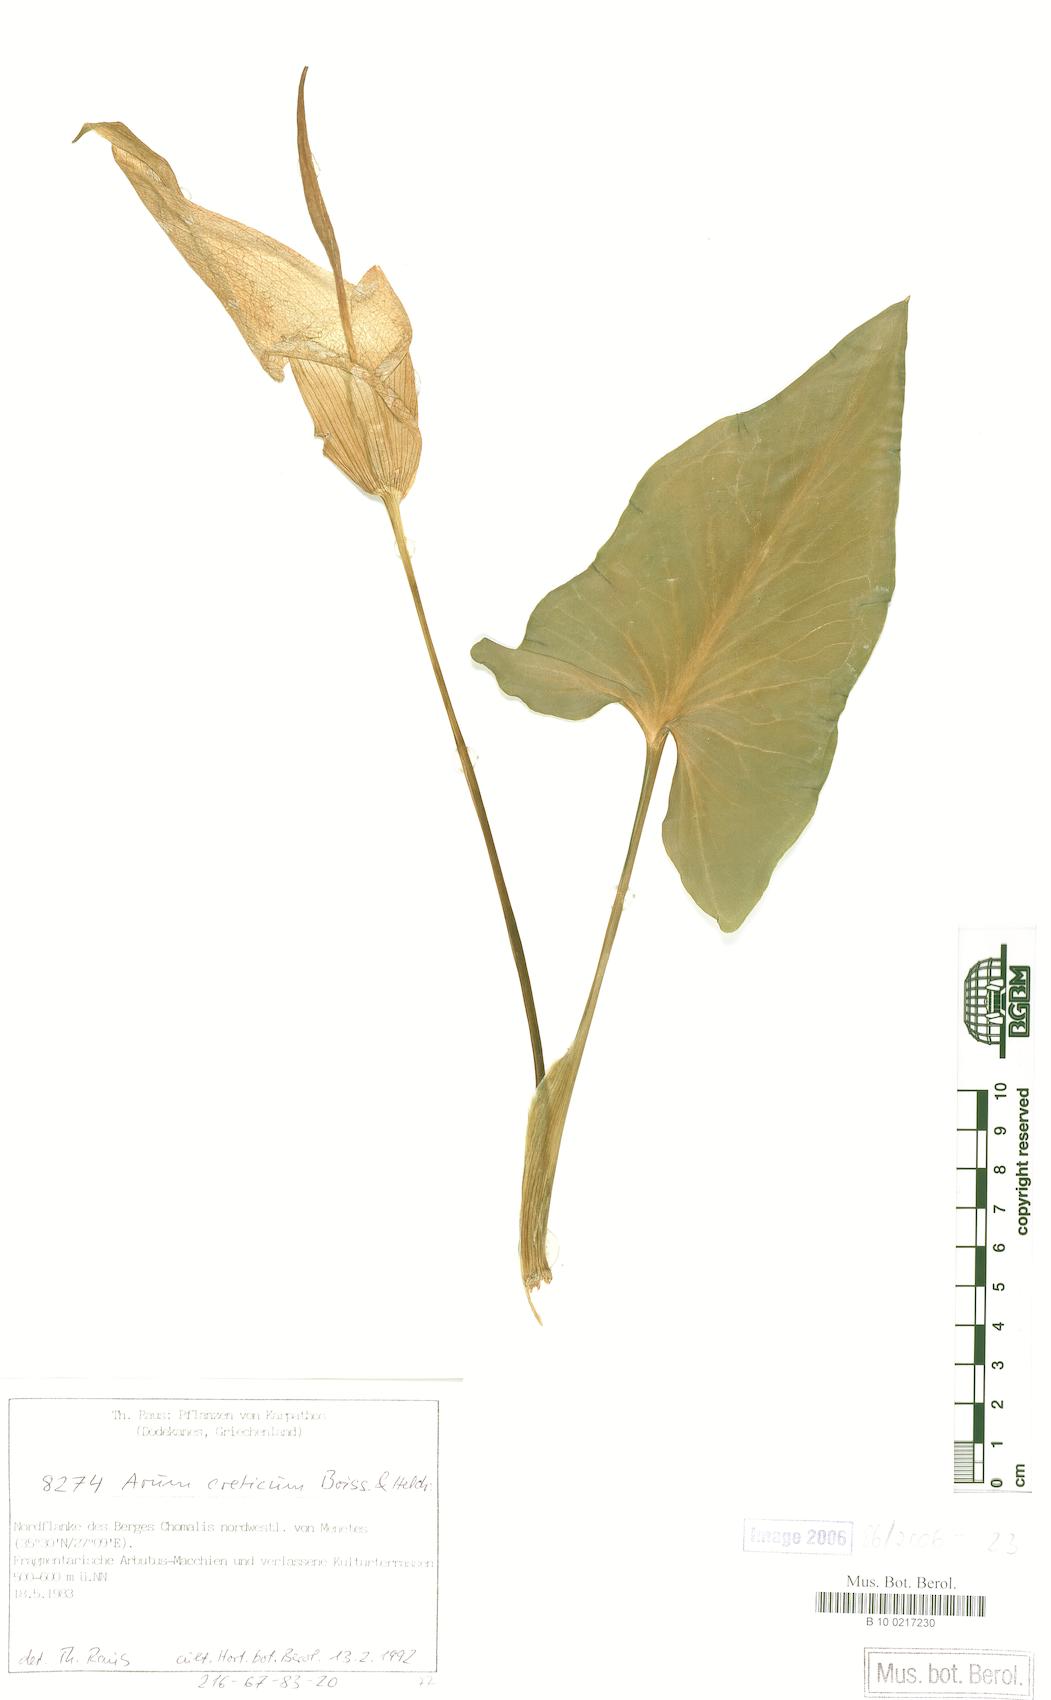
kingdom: Plantae
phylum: Tracheophyta
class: Liliopsida
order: Alismatales
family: Araceae
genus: Arum
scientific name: Arum creticum
